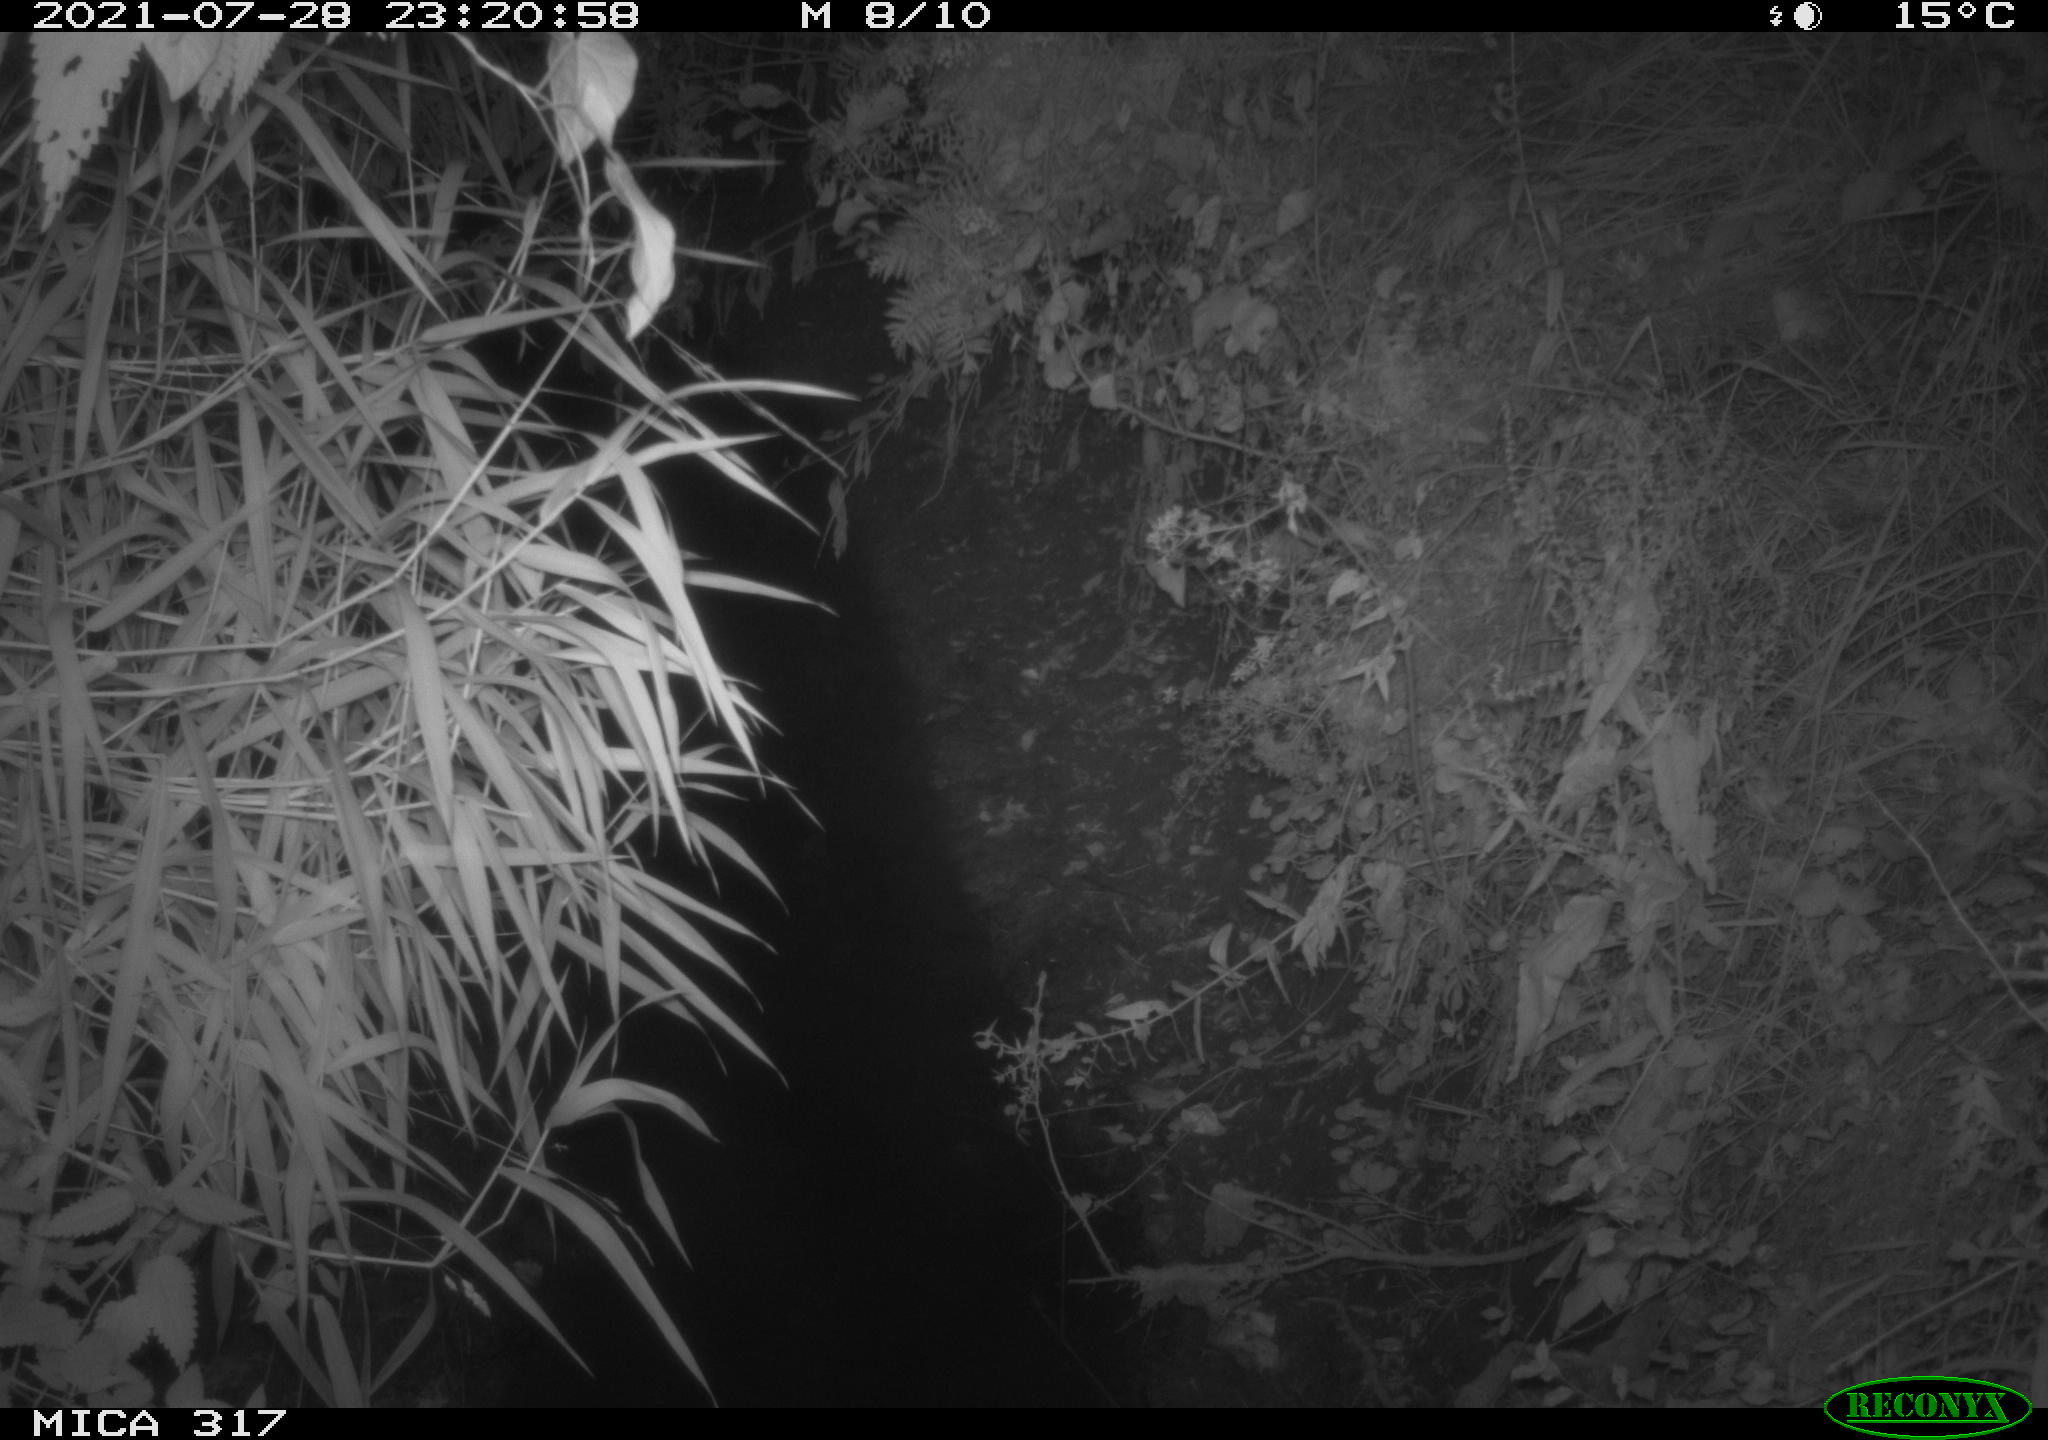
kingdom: Animalia
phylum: Chordata
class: Mammalia
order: Rodentia
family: Muridae
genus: Rattus
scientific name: Rattus norvegicus
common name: Brown rat
